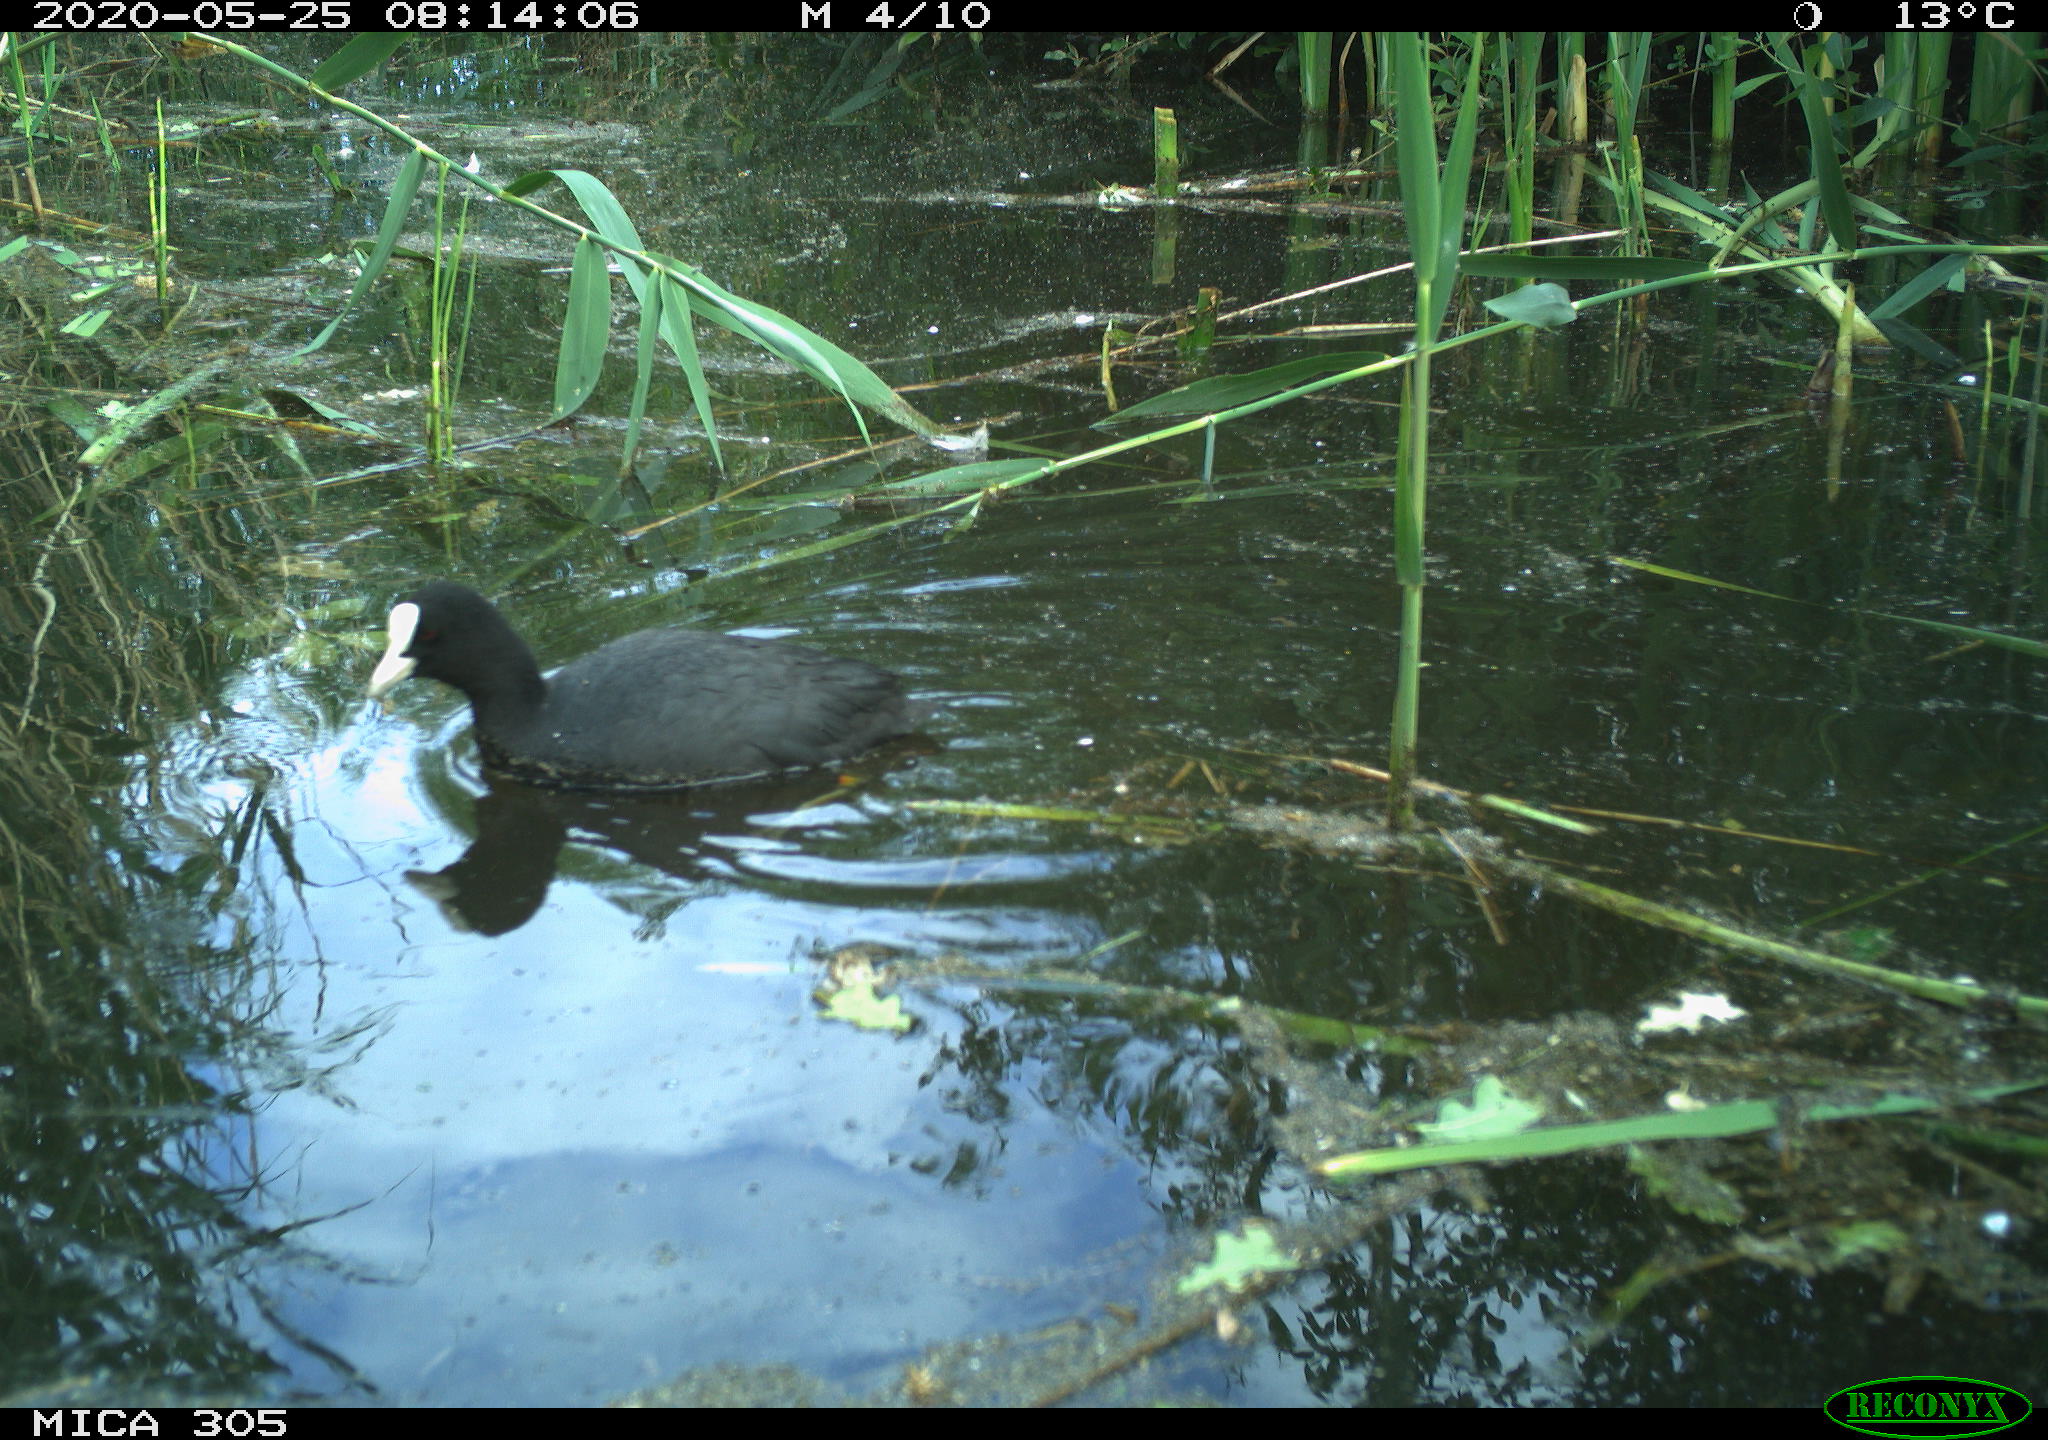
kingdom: Animalia
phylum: Chordata
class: Aves
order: Gruiformes
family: Rallidae
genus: Fulica
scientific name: Fulica atra
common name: Eurasian coot
